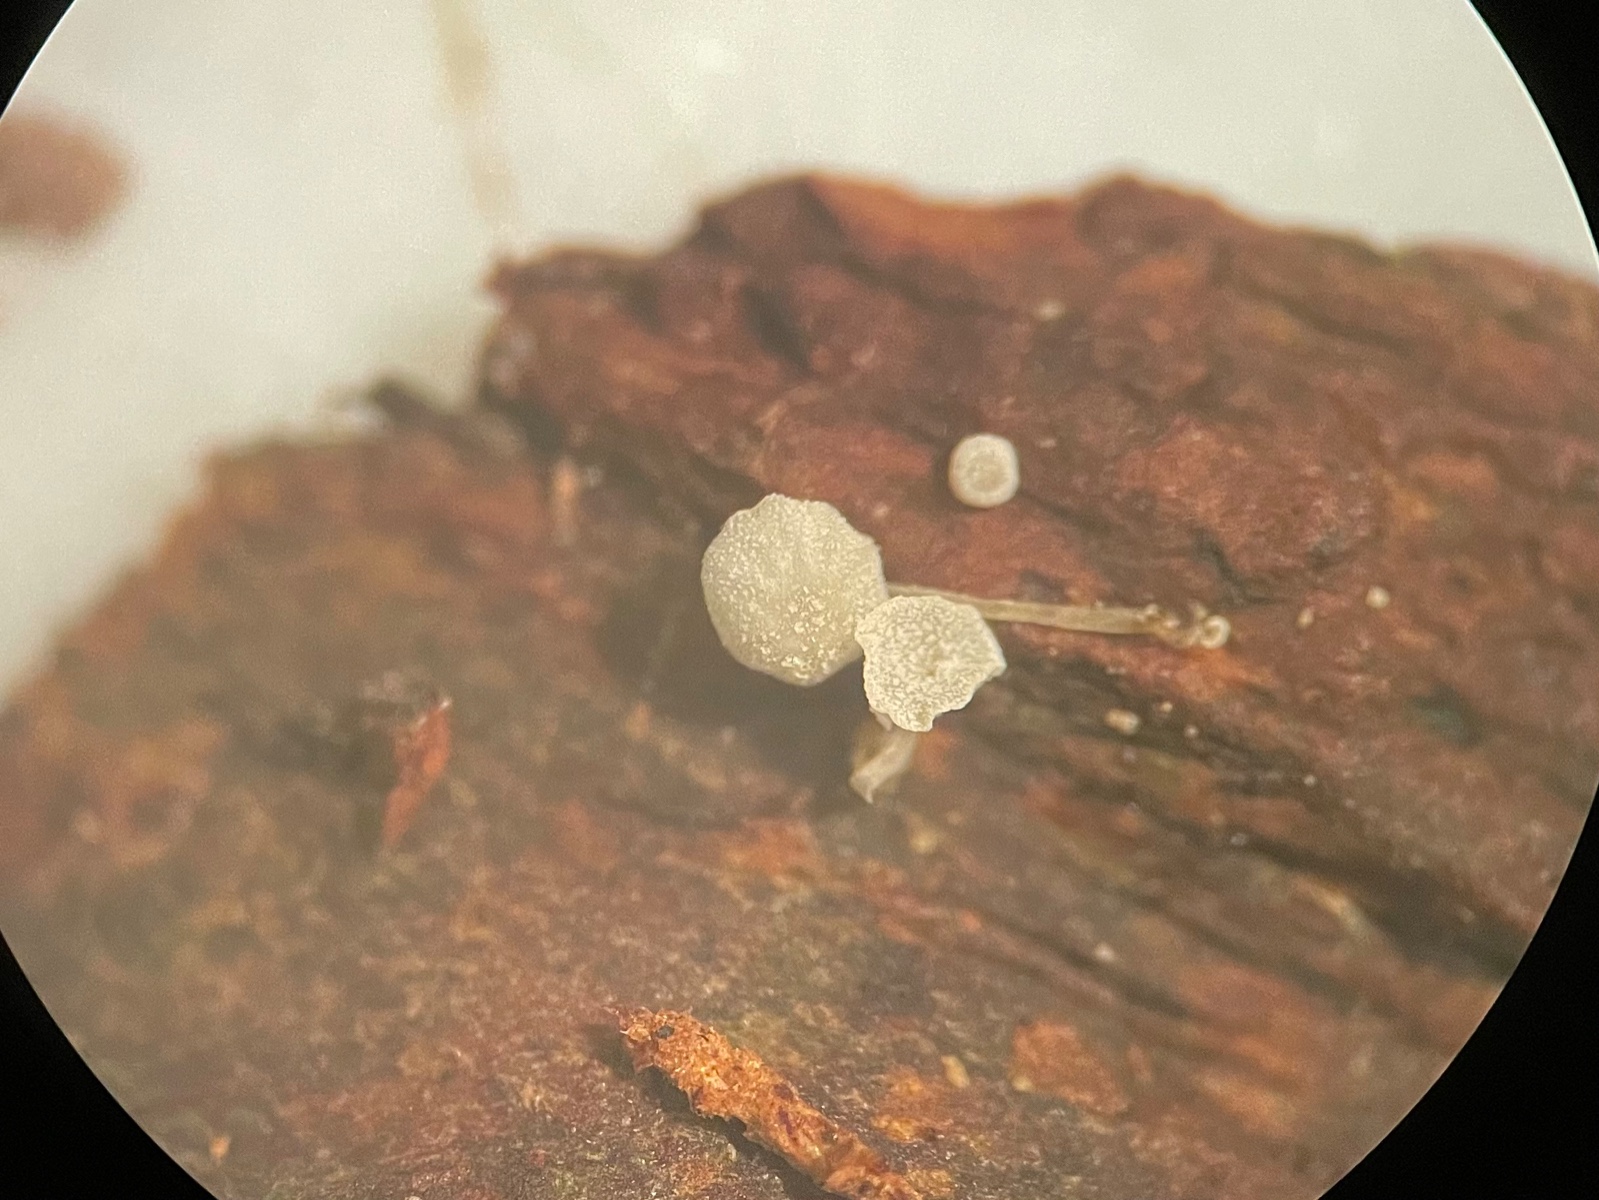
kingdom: Fungi
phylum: Basidiomycota
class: Agaricomycetes
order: Agaricales
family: Mycenaceae
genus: Mycena
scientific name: Mycena tenerrima
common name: pudret huesvamp
